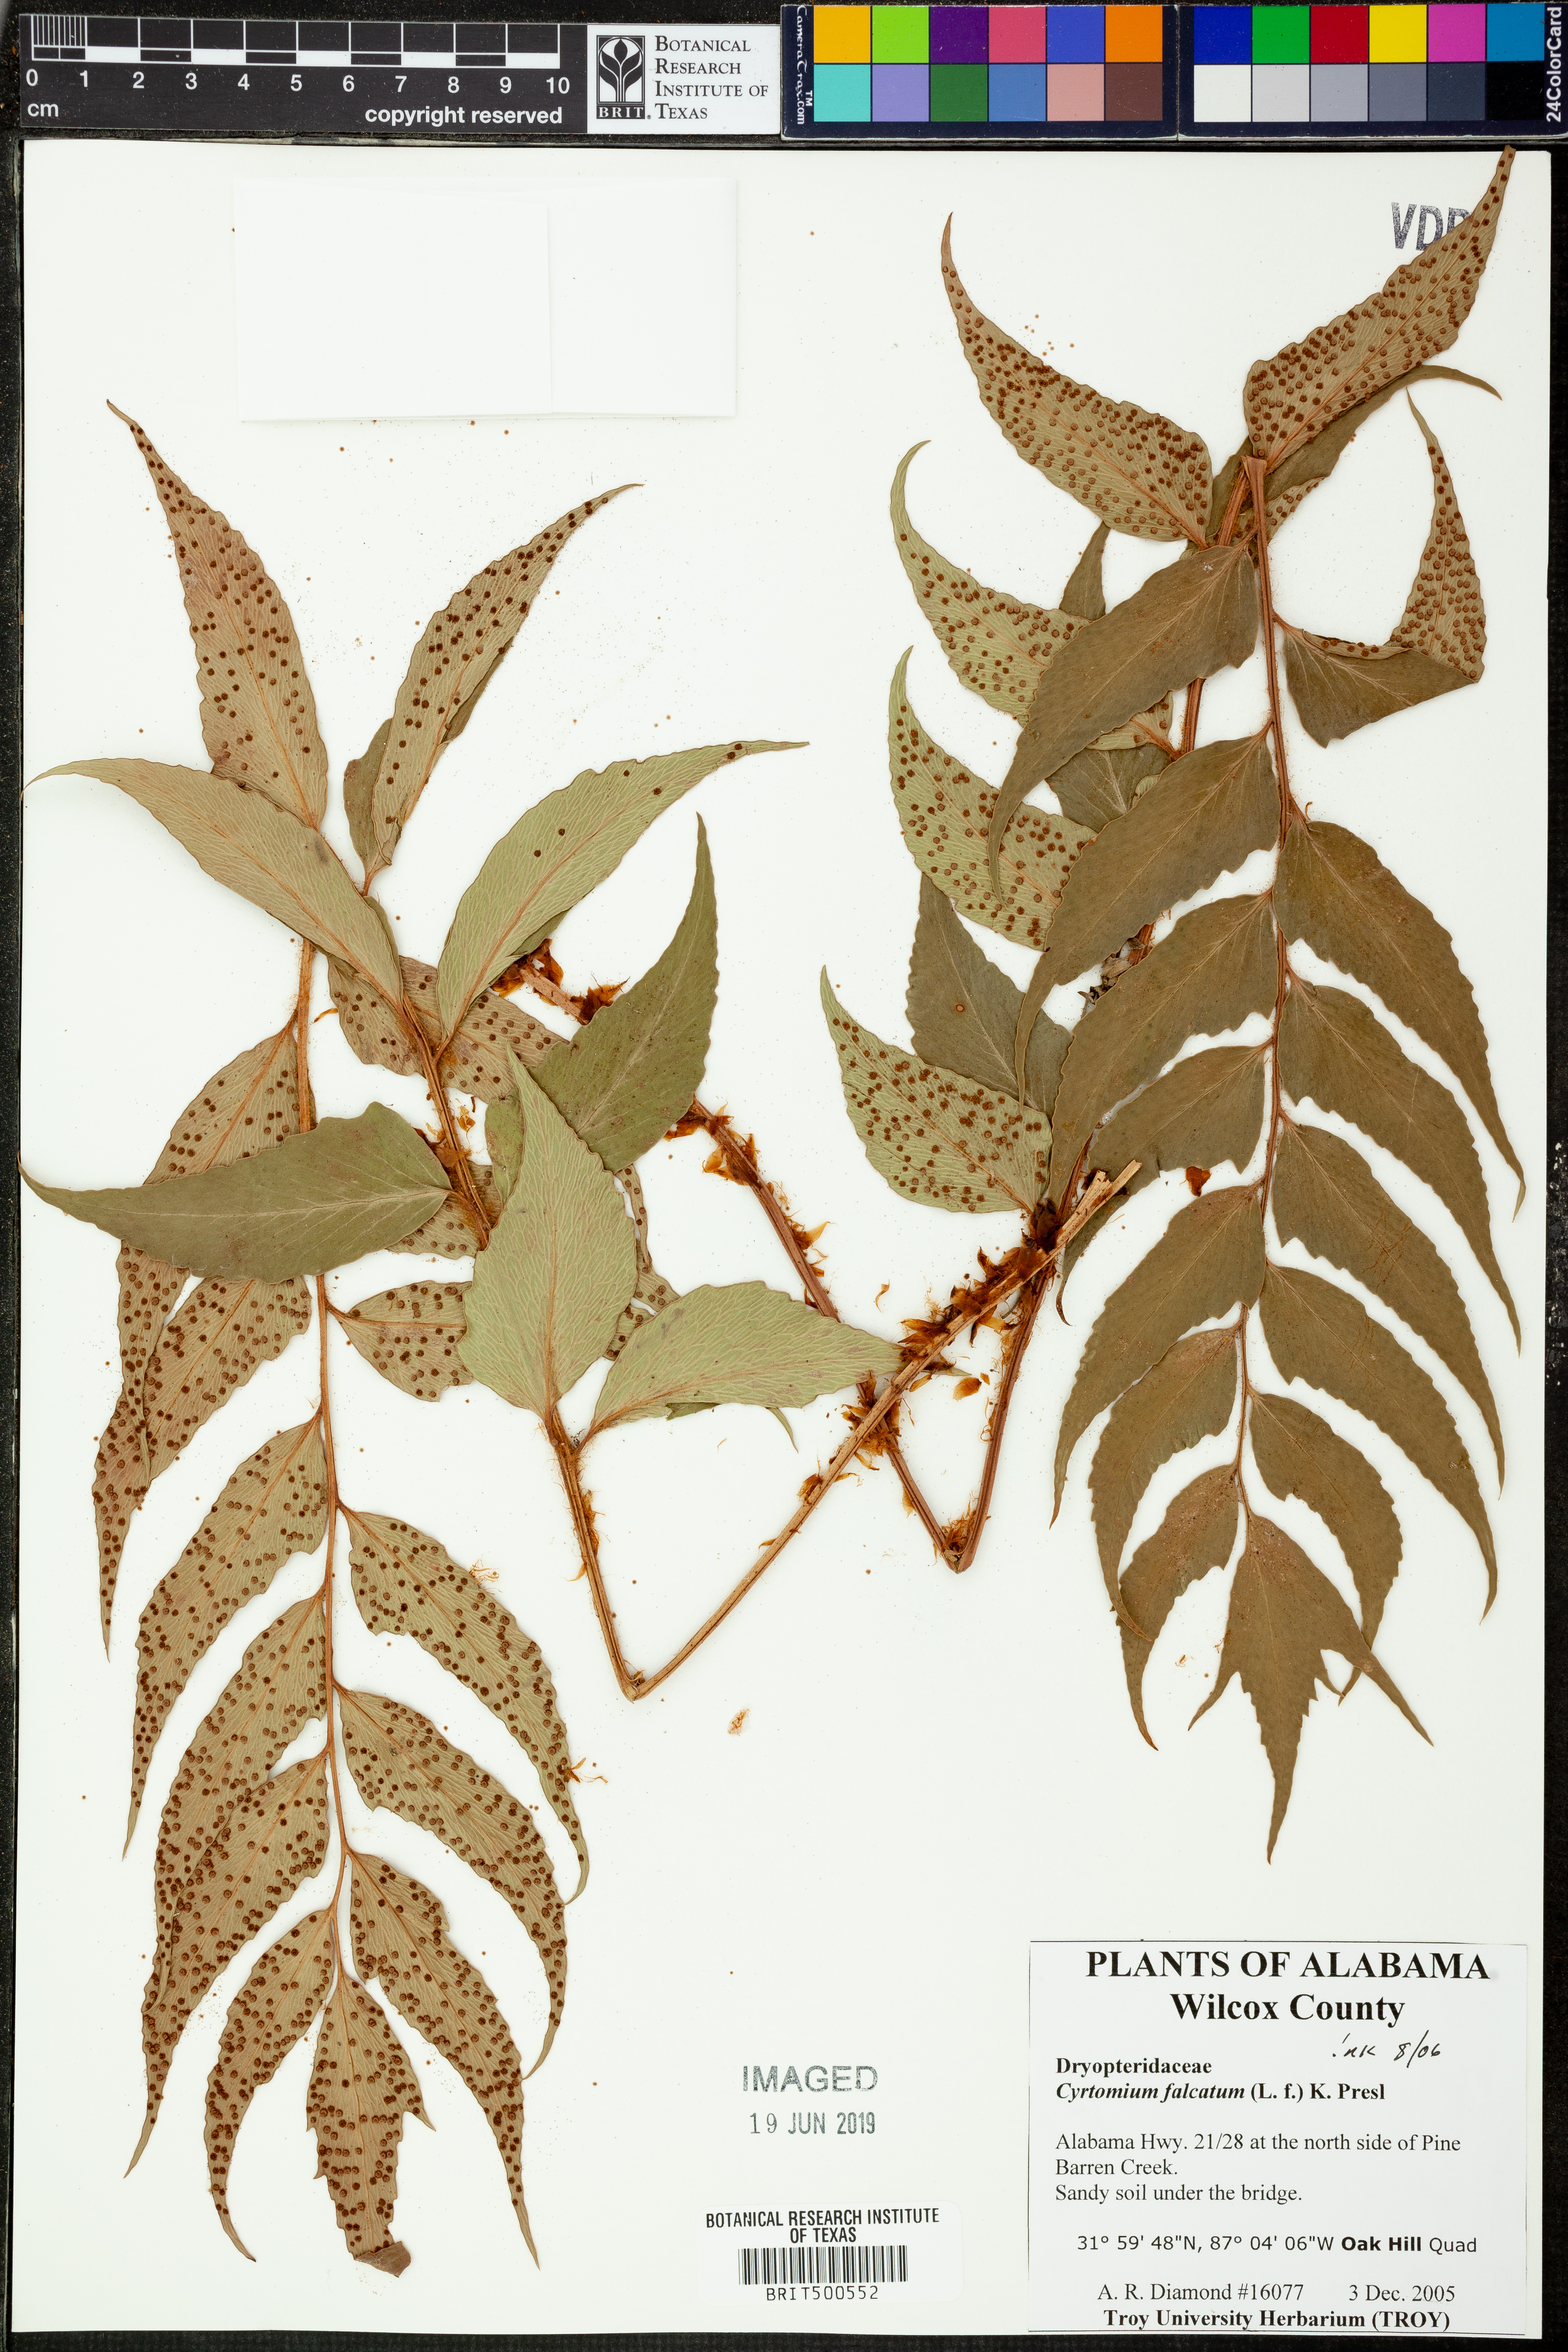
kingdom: Plantae
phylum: Tracheophyta
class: Polypodiopsida
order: Polypodiales
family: Dryopteridaceae
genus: Cyrtomium
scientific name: Cyrtomium falcatum
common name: House holly-fern
